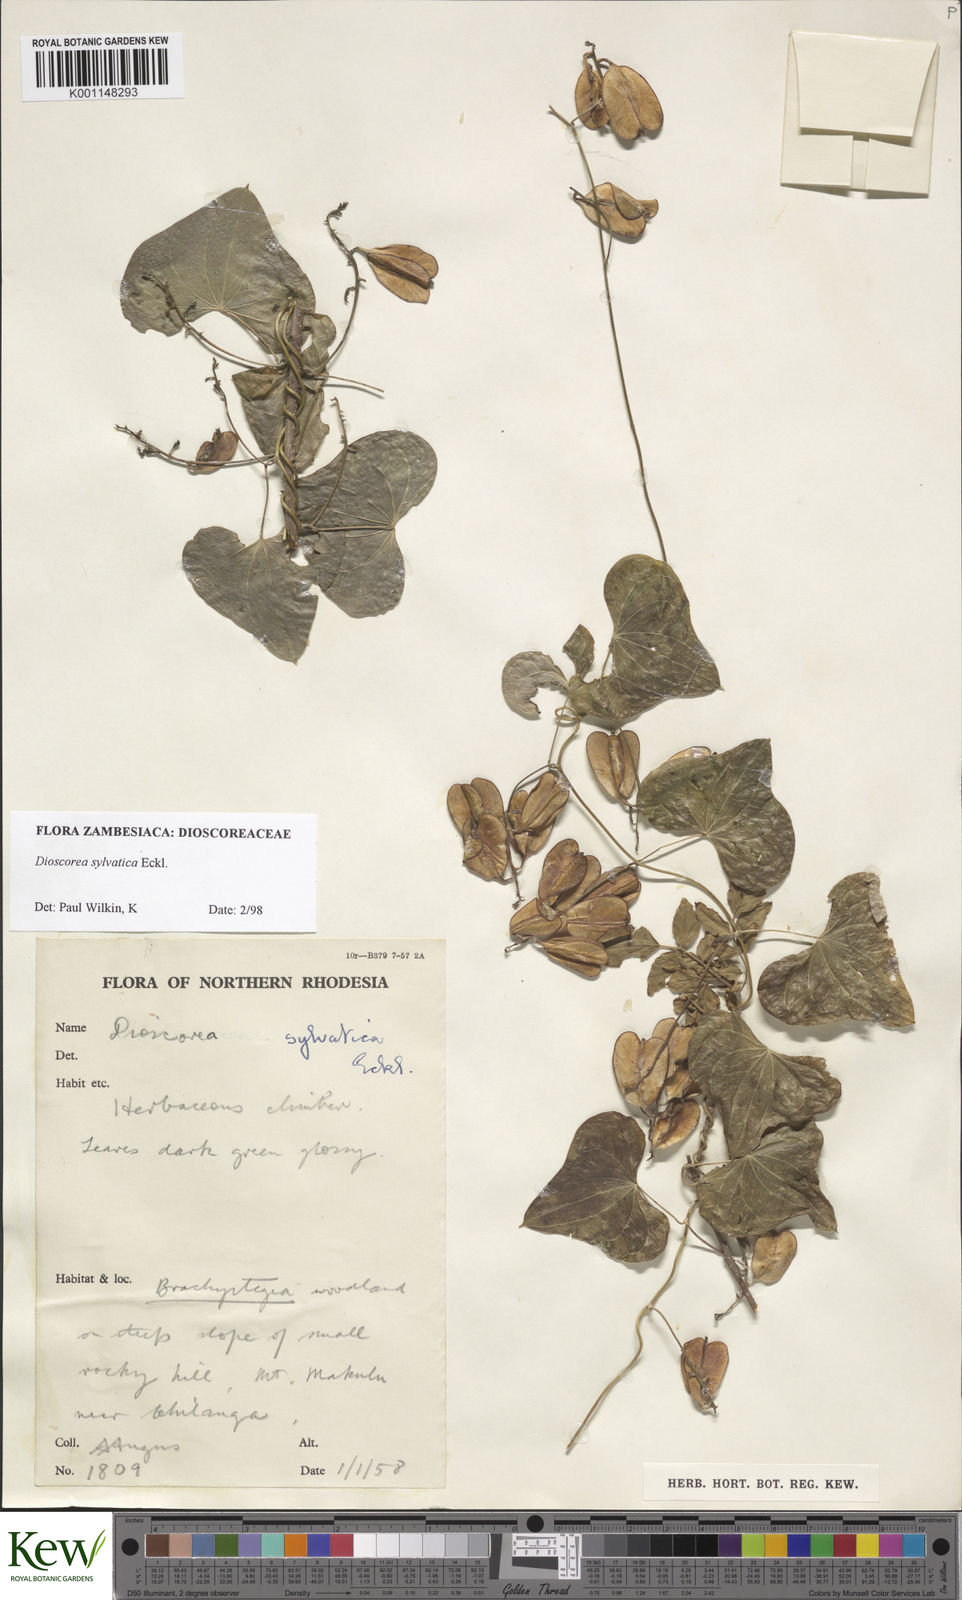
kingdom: Plantae
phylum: Tracheophyta
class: Liliopsida
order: Dioscoreales
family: Dioscoreaceae
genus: Dioscorea
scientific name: Dioscorea sylvatica
